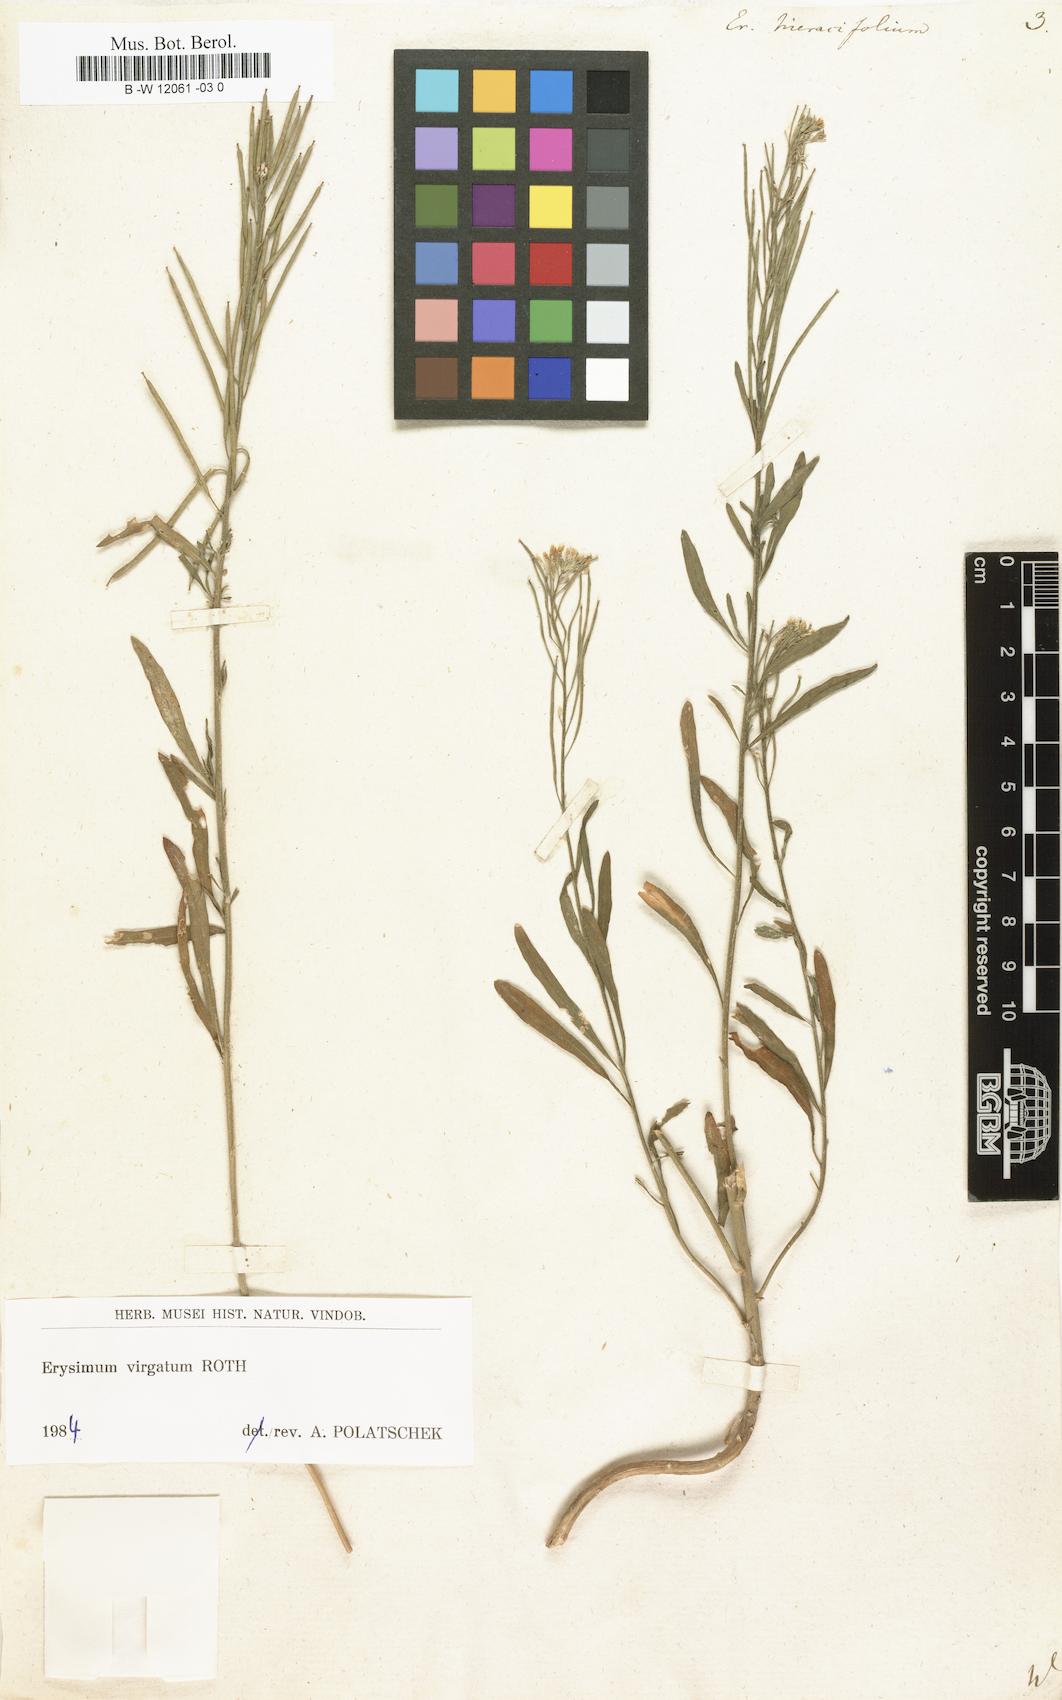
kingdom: Plantae
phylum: Tracheophyta
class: Magnoliopsida
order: Brassicales
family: Brassicaceae
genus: Erysimum
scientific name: Erysimum hieraciifolium
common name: European wallflower
